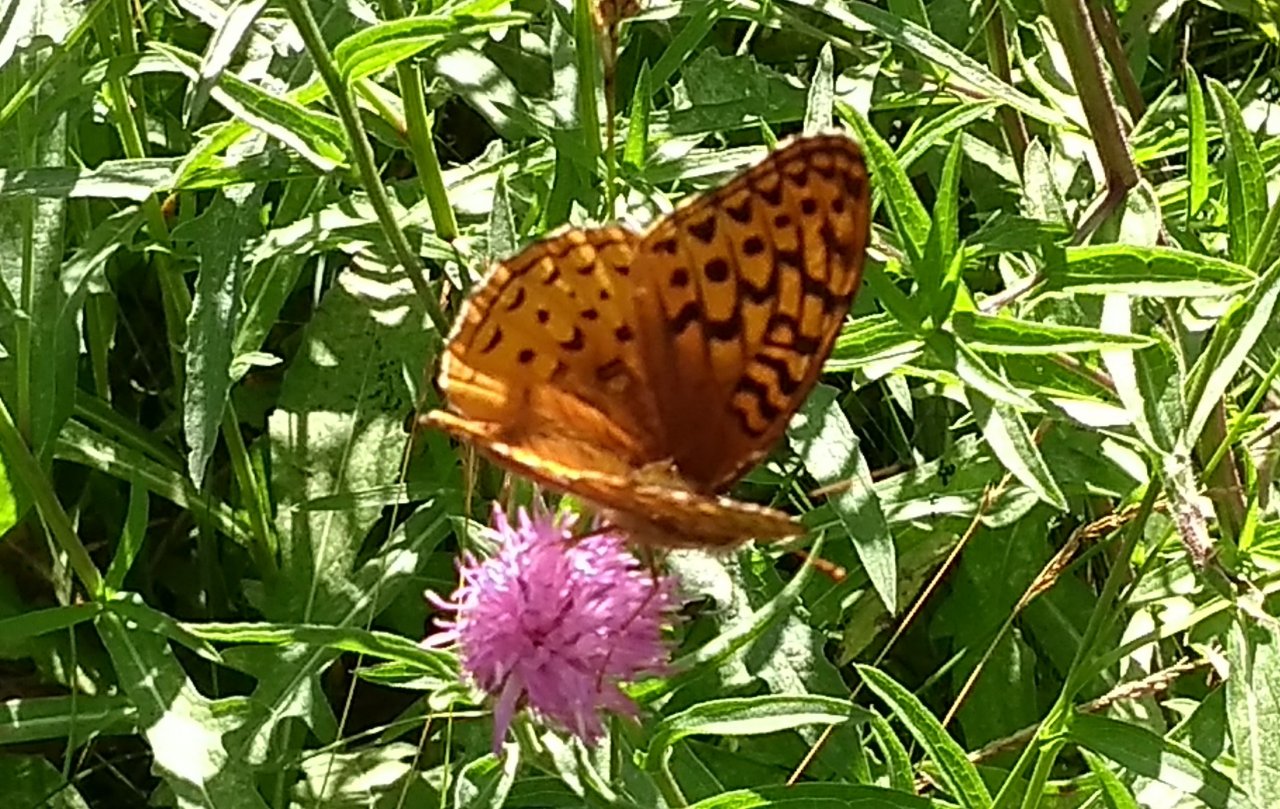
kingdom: Animalia
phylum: Arthropoda
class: Insecta
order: Lepidoptera
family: Nymphalidae
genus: Speyeria
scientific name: Speyeria cybele
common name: Great Spangled Fritillary
